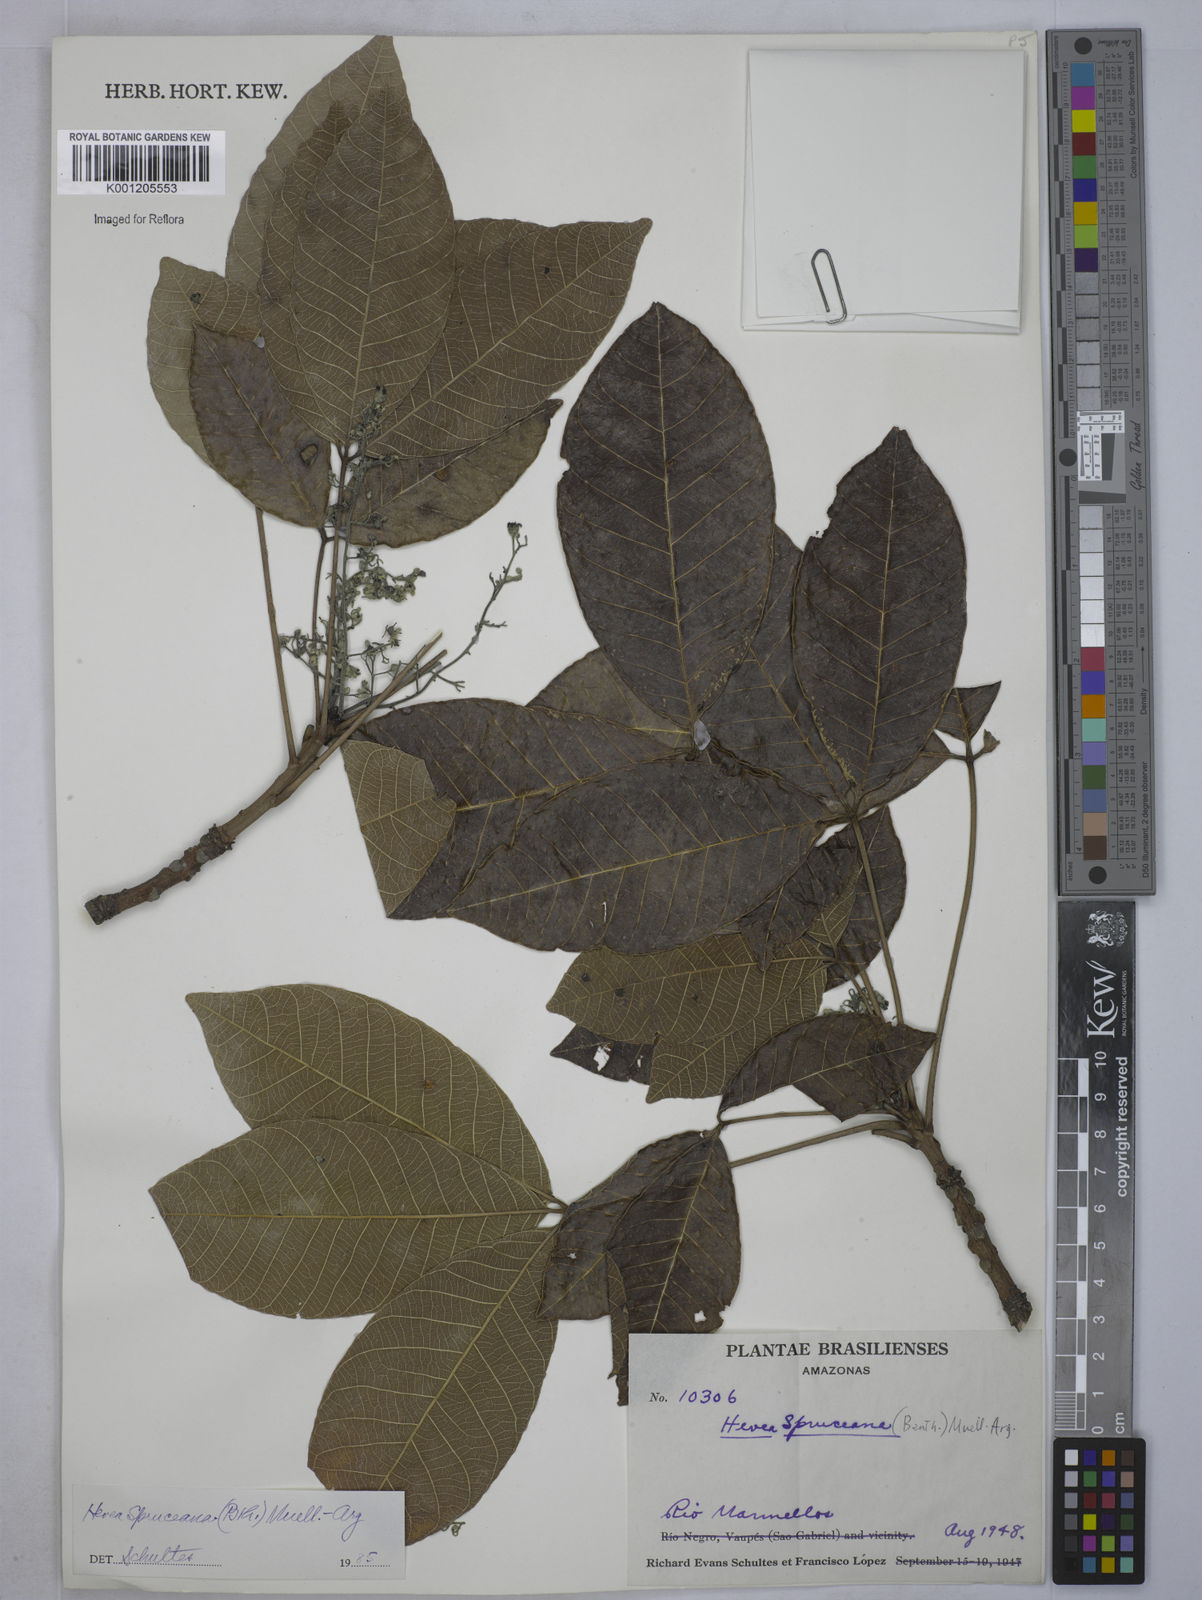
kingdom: Plantae
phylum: Tracheophyta
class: Magnoliopsida
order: Malpighiales
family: Euphorbiaceae
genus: Hevea
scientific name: Hevea
